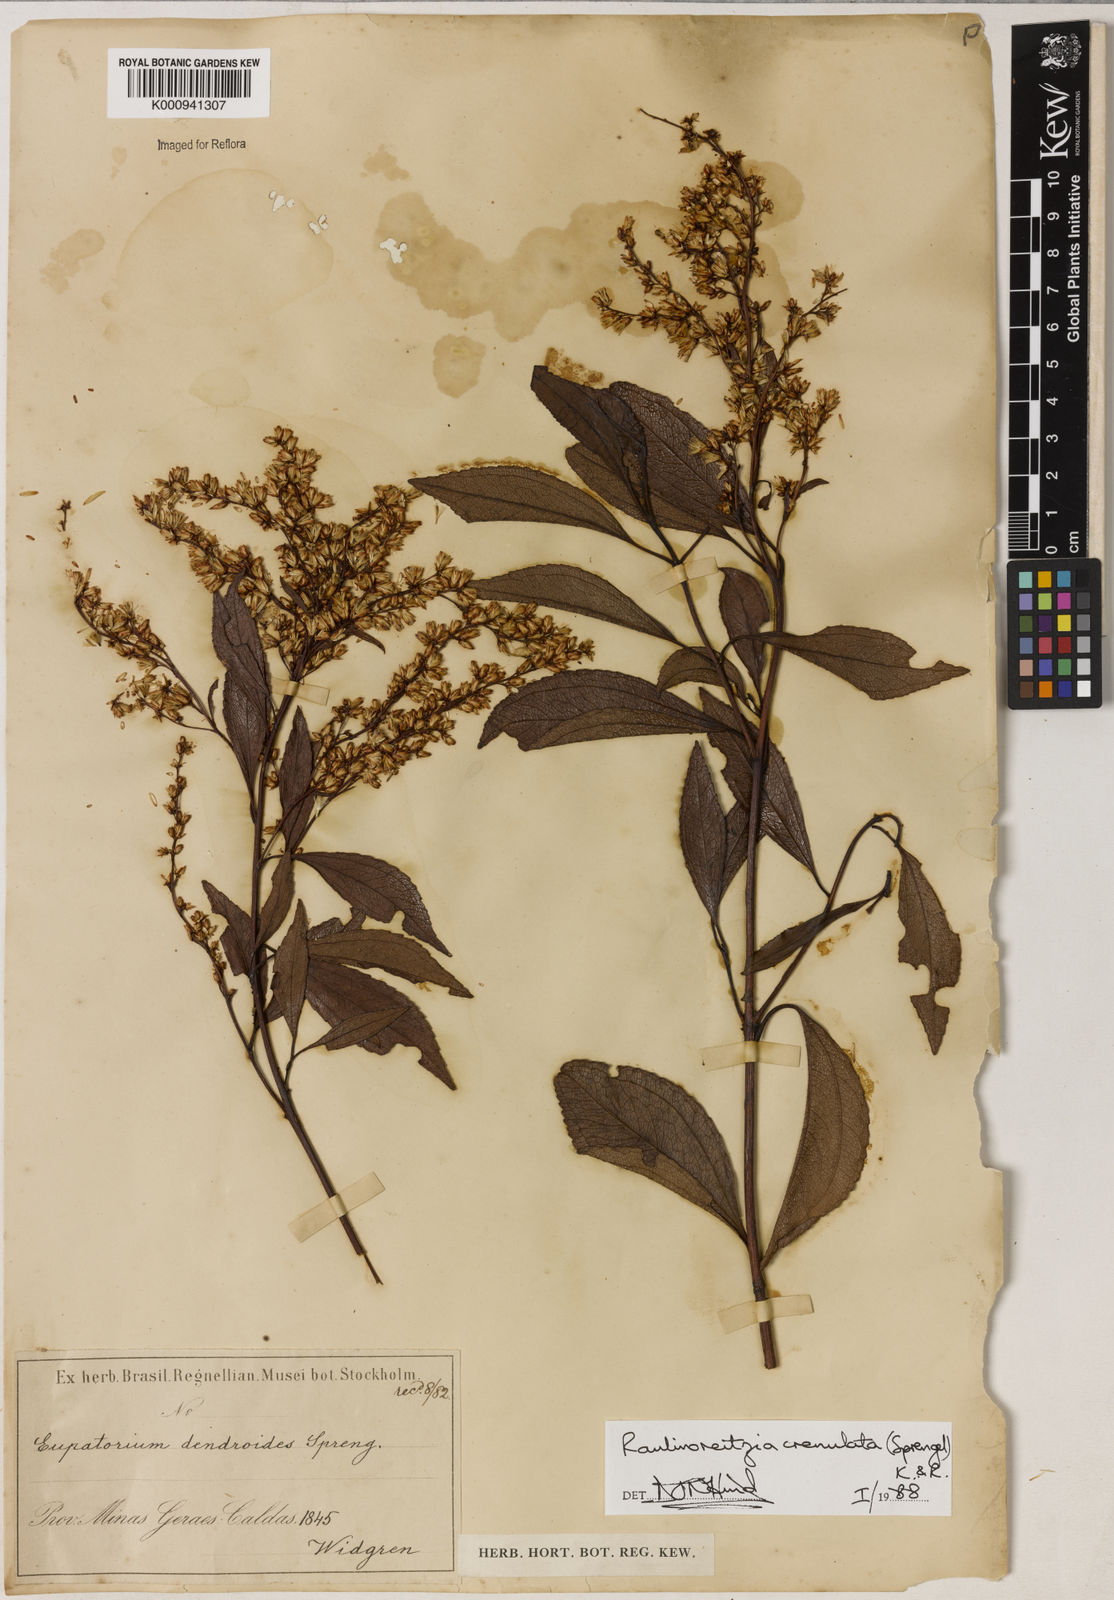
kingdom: Plantae
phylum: Tracheophyta
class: Magnoliopsida
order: Asterales
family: Asteraceae
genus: Raulinoreitzia
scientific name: Raulinoreitzia crenulata
